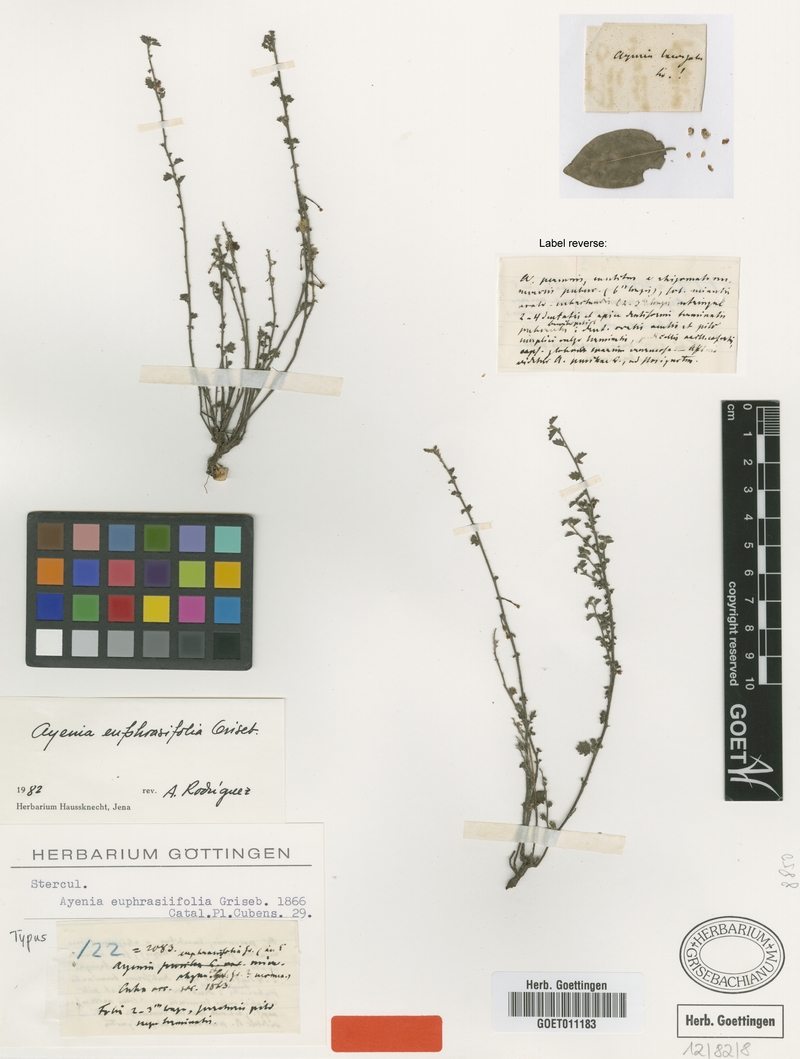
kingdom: Plantae
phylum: Tracheophyta
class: Magnoliopsida
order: Malvales
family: Malvaceae
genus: Ayenia
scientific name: Ayenia euphrasiifolia
